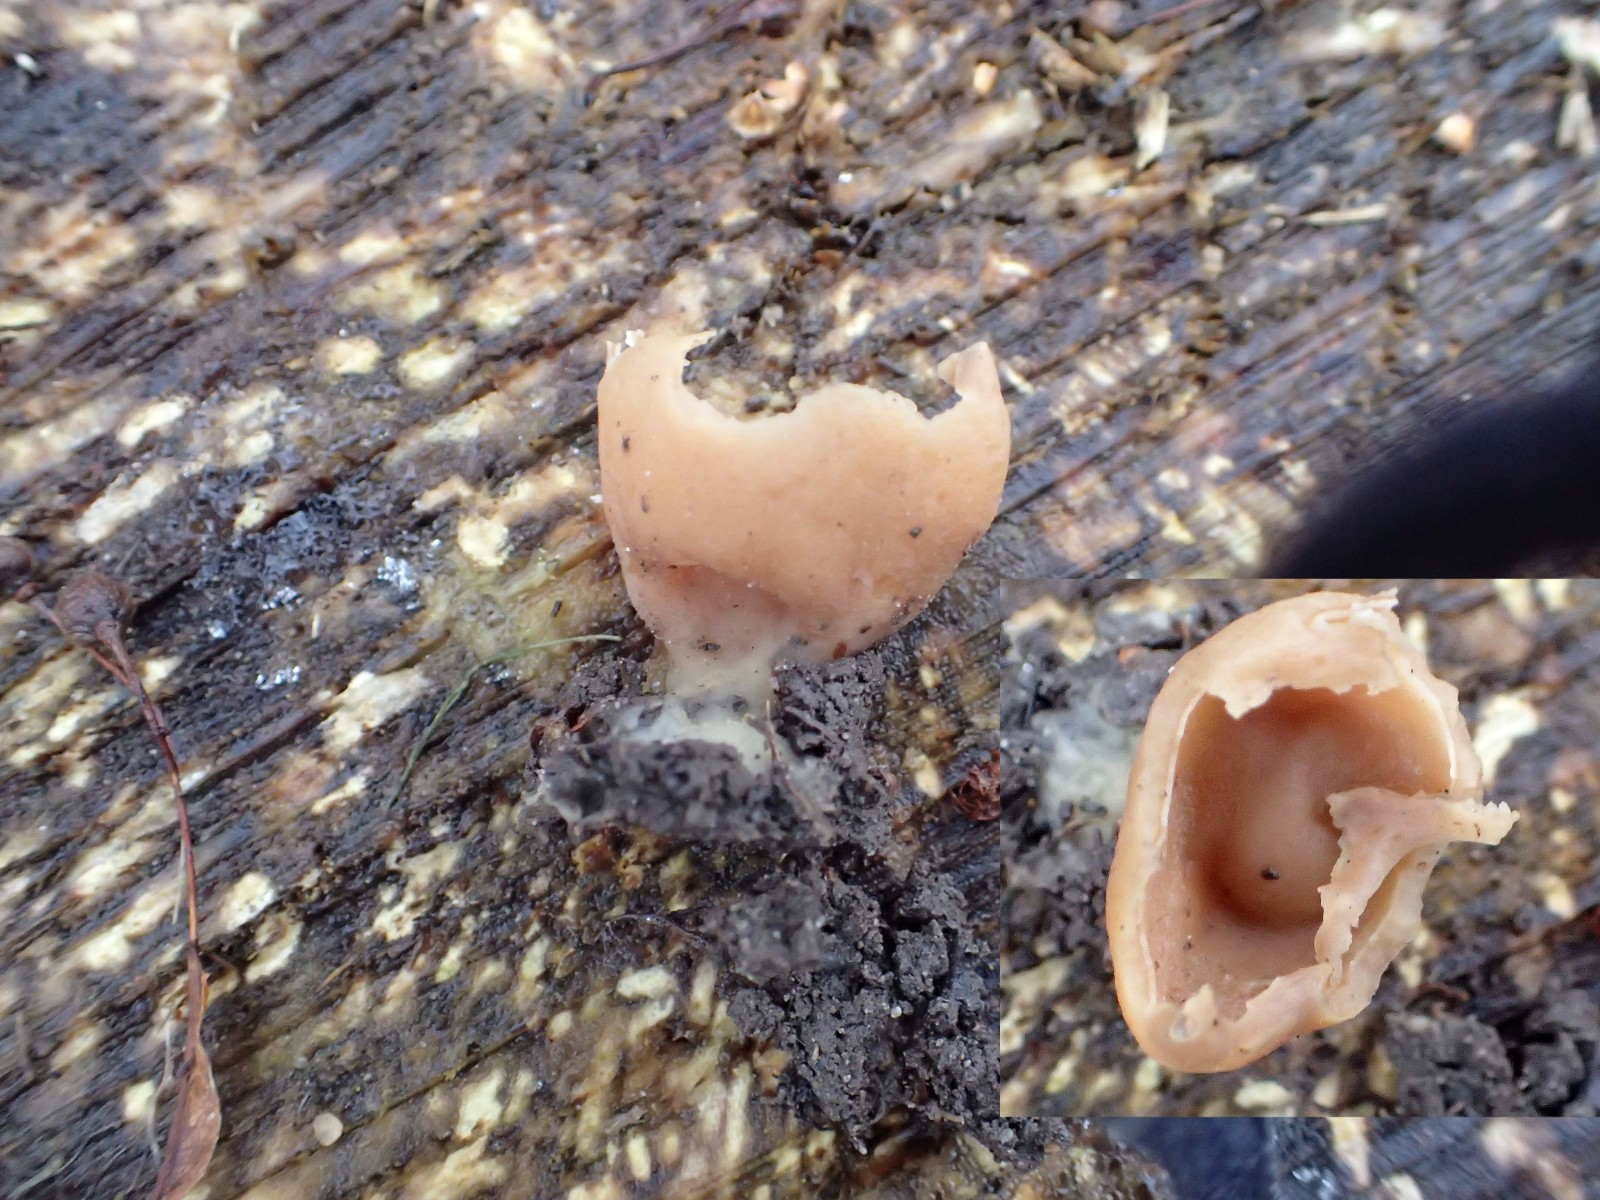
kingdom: Fungi
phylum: Ascomycota
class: Pezizomycetes
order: Pezizales
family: Pezizaceae
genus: Peziza
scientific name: Peziza
